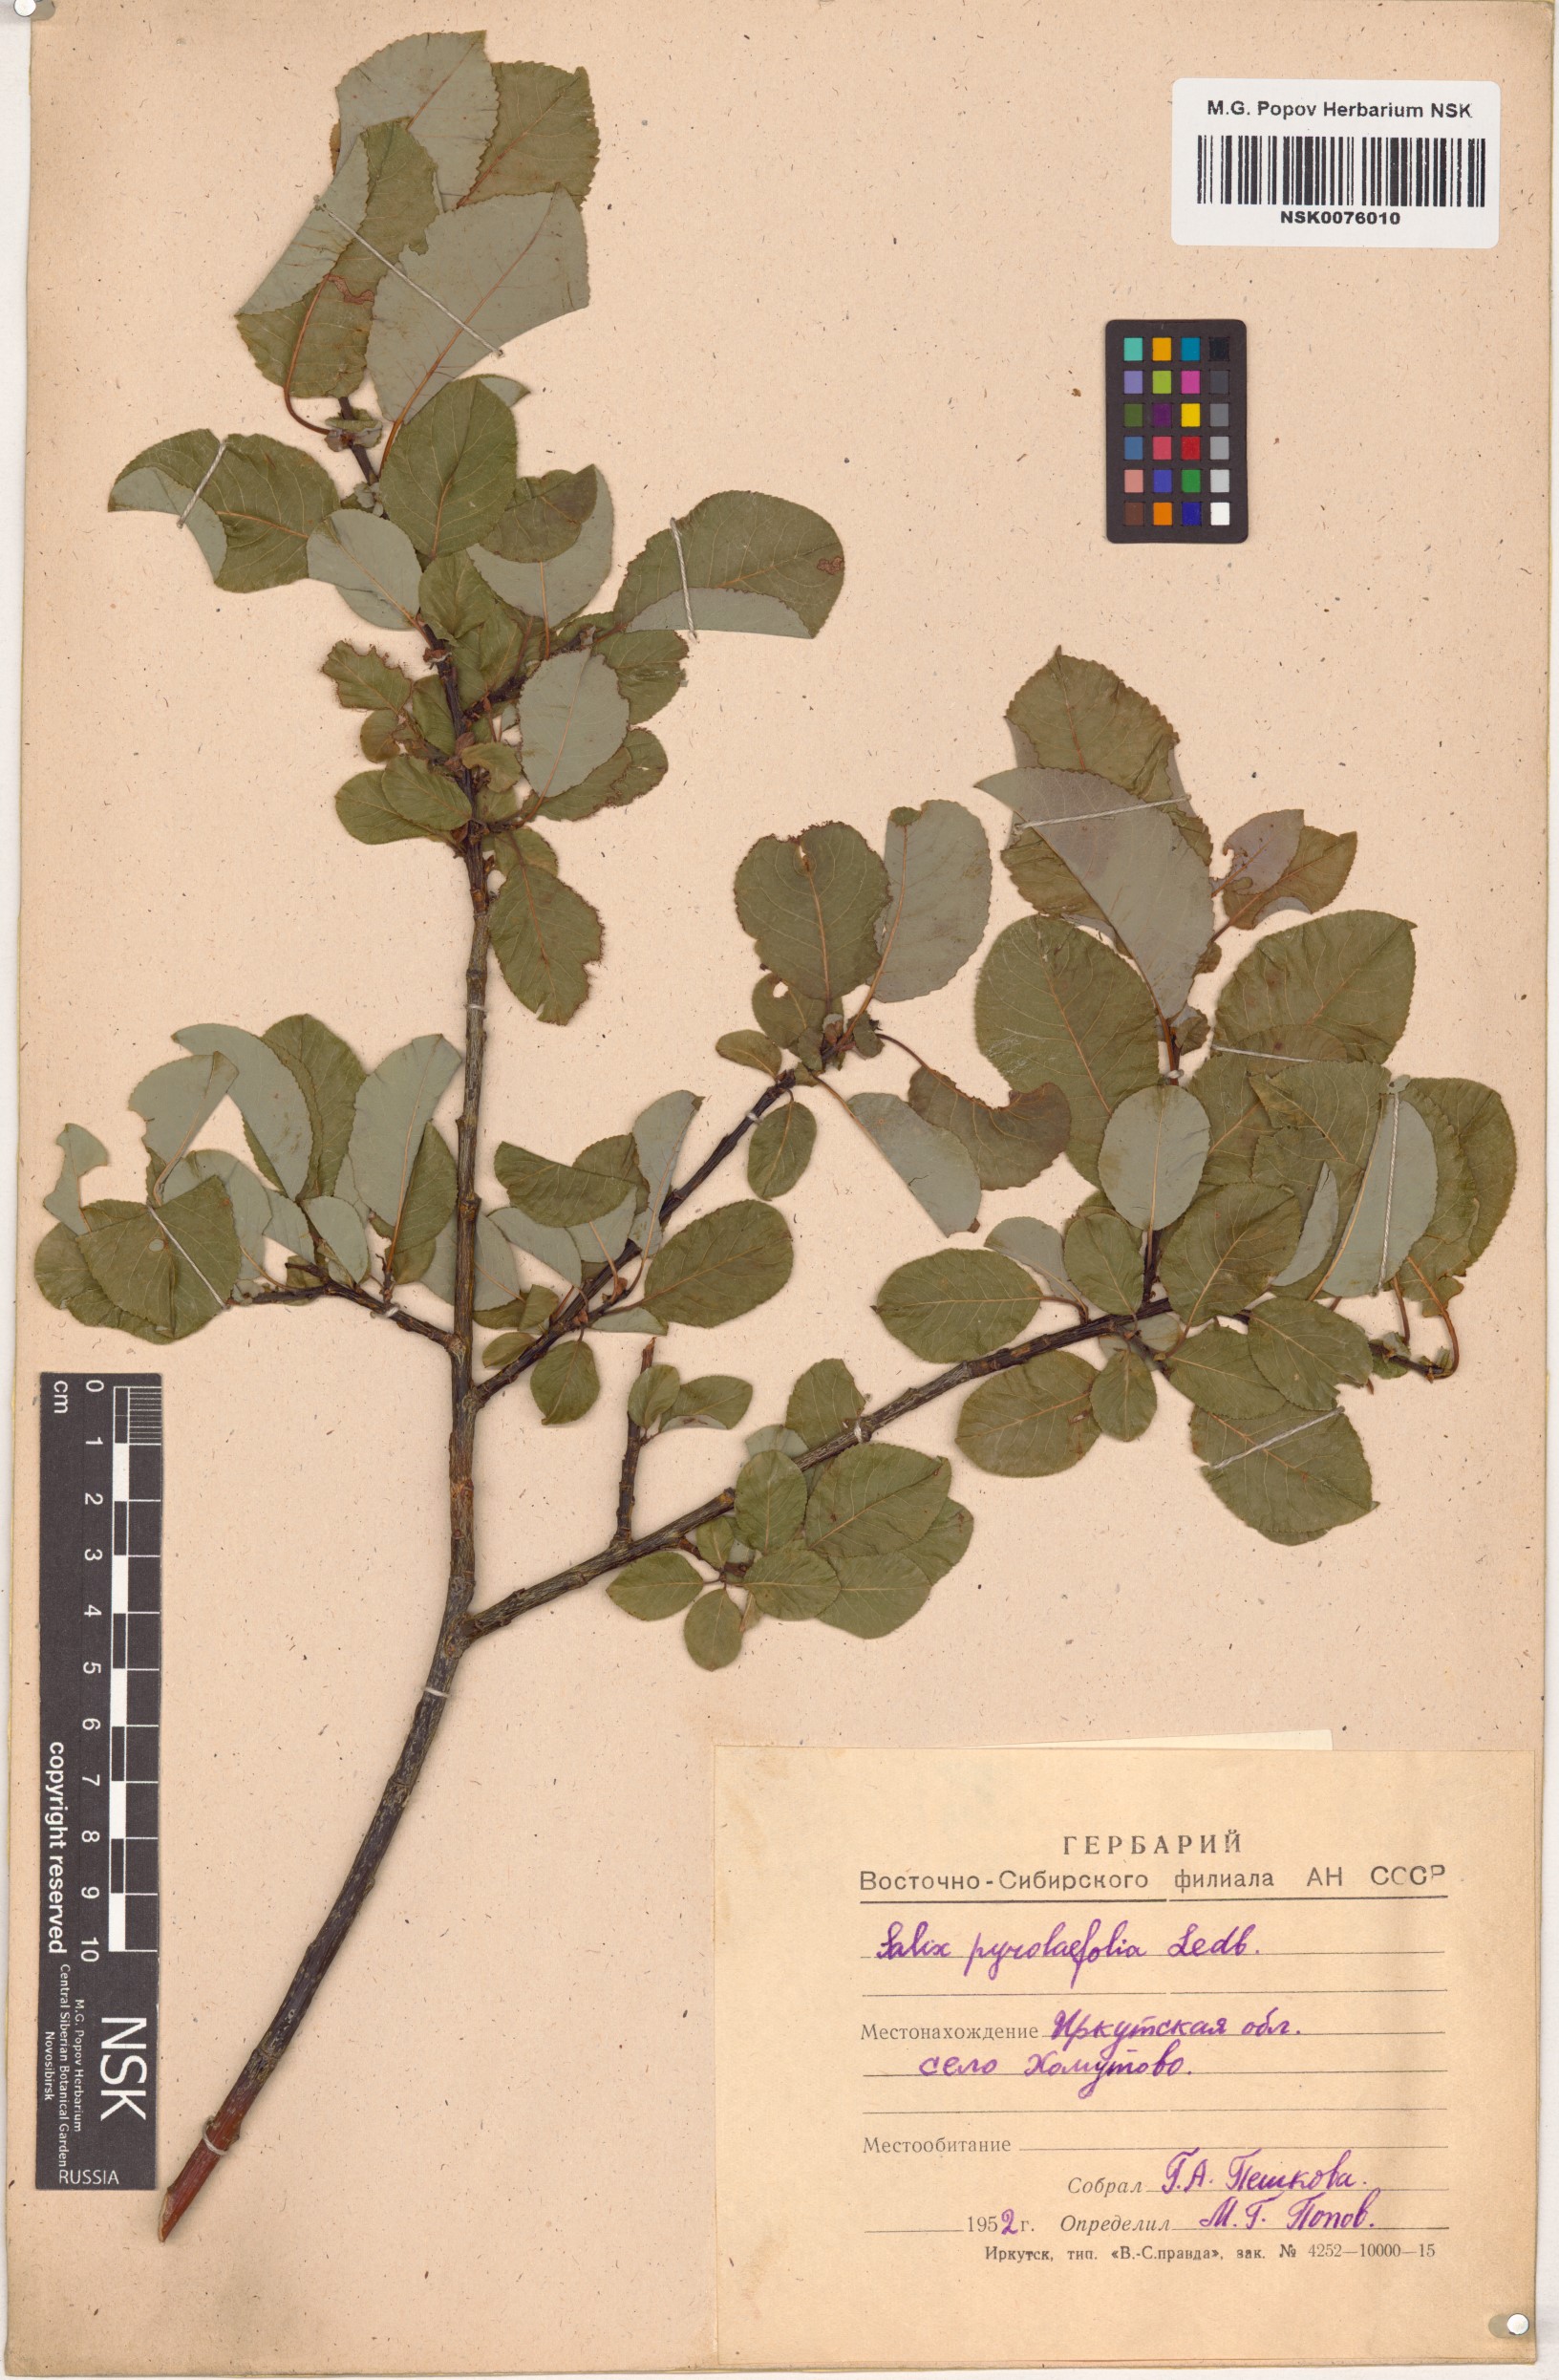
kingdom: Plantae
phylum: Tracheophyta
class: Magnoliopsida
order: Malpighiales
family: Salicaceae
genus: Salix
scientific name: Salix pyrolifolia
